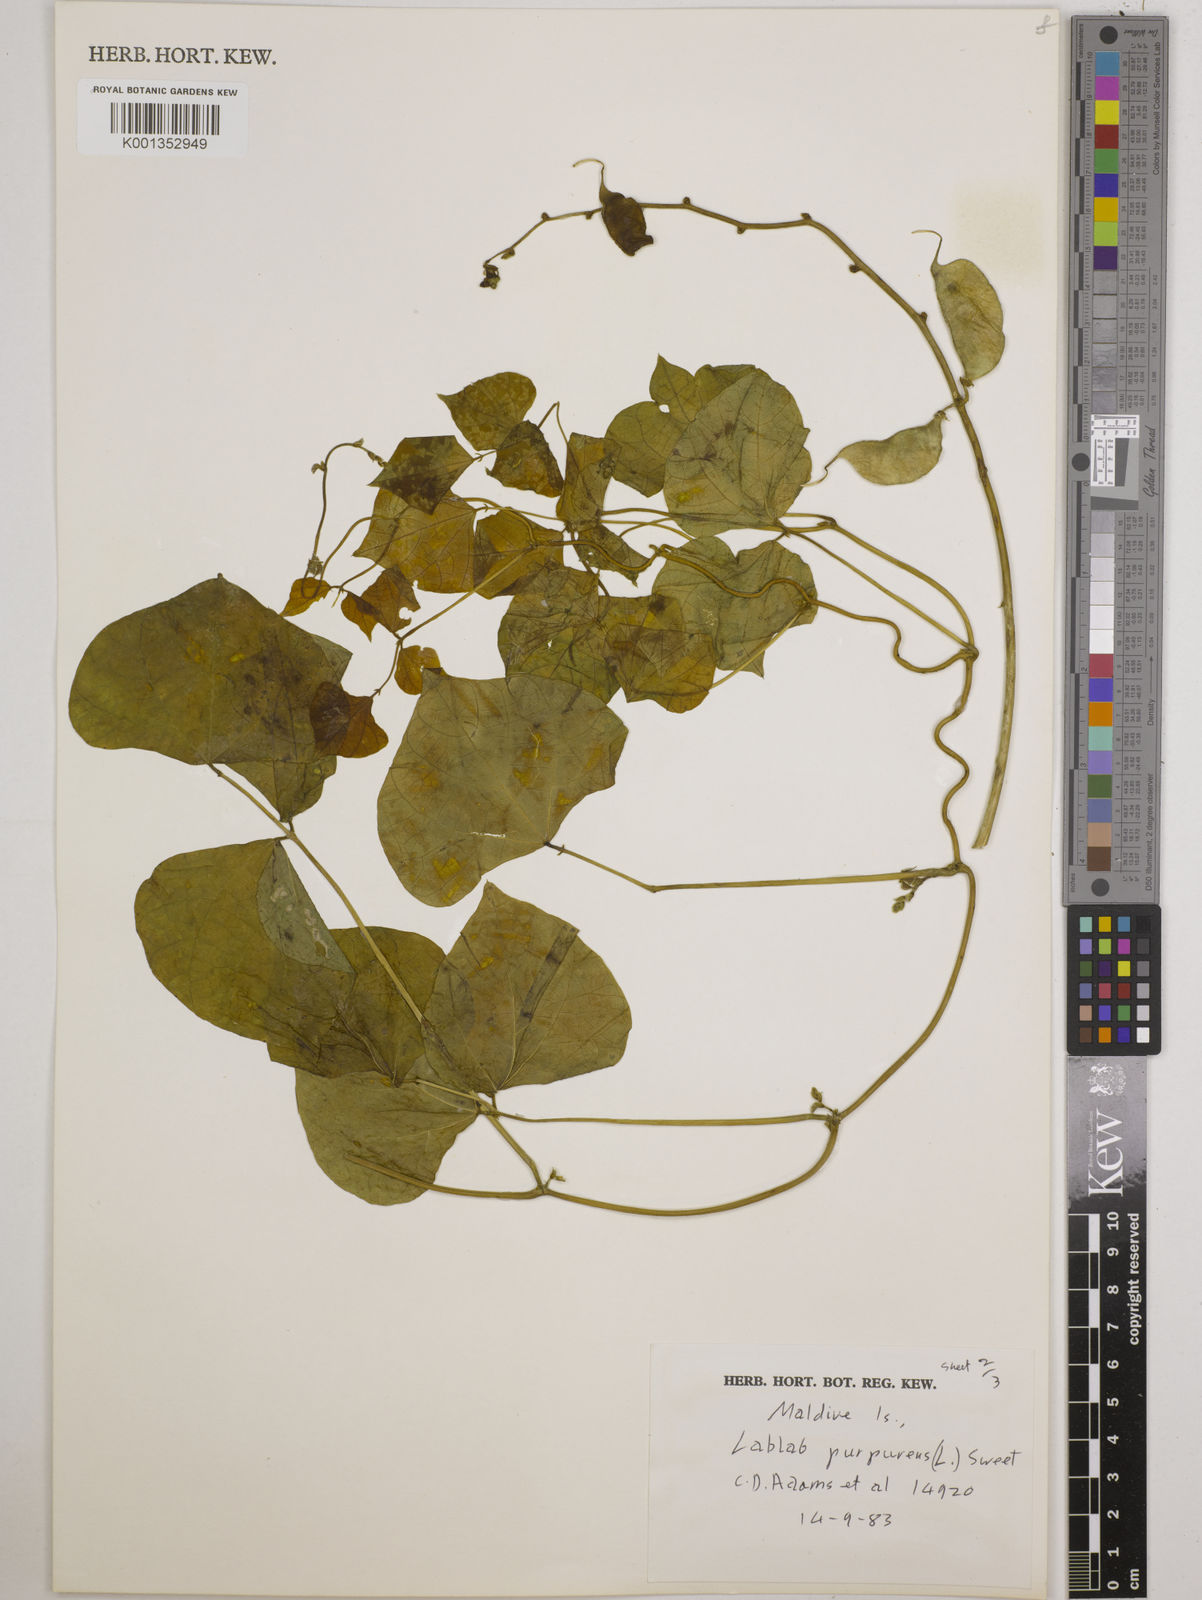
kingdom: Plantae
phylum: Tracheophyta
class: Magnoliopsida
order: Fabales
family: Fabaceae
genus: Lablab
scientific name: Lablab purpureus
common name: Lablab-bean
